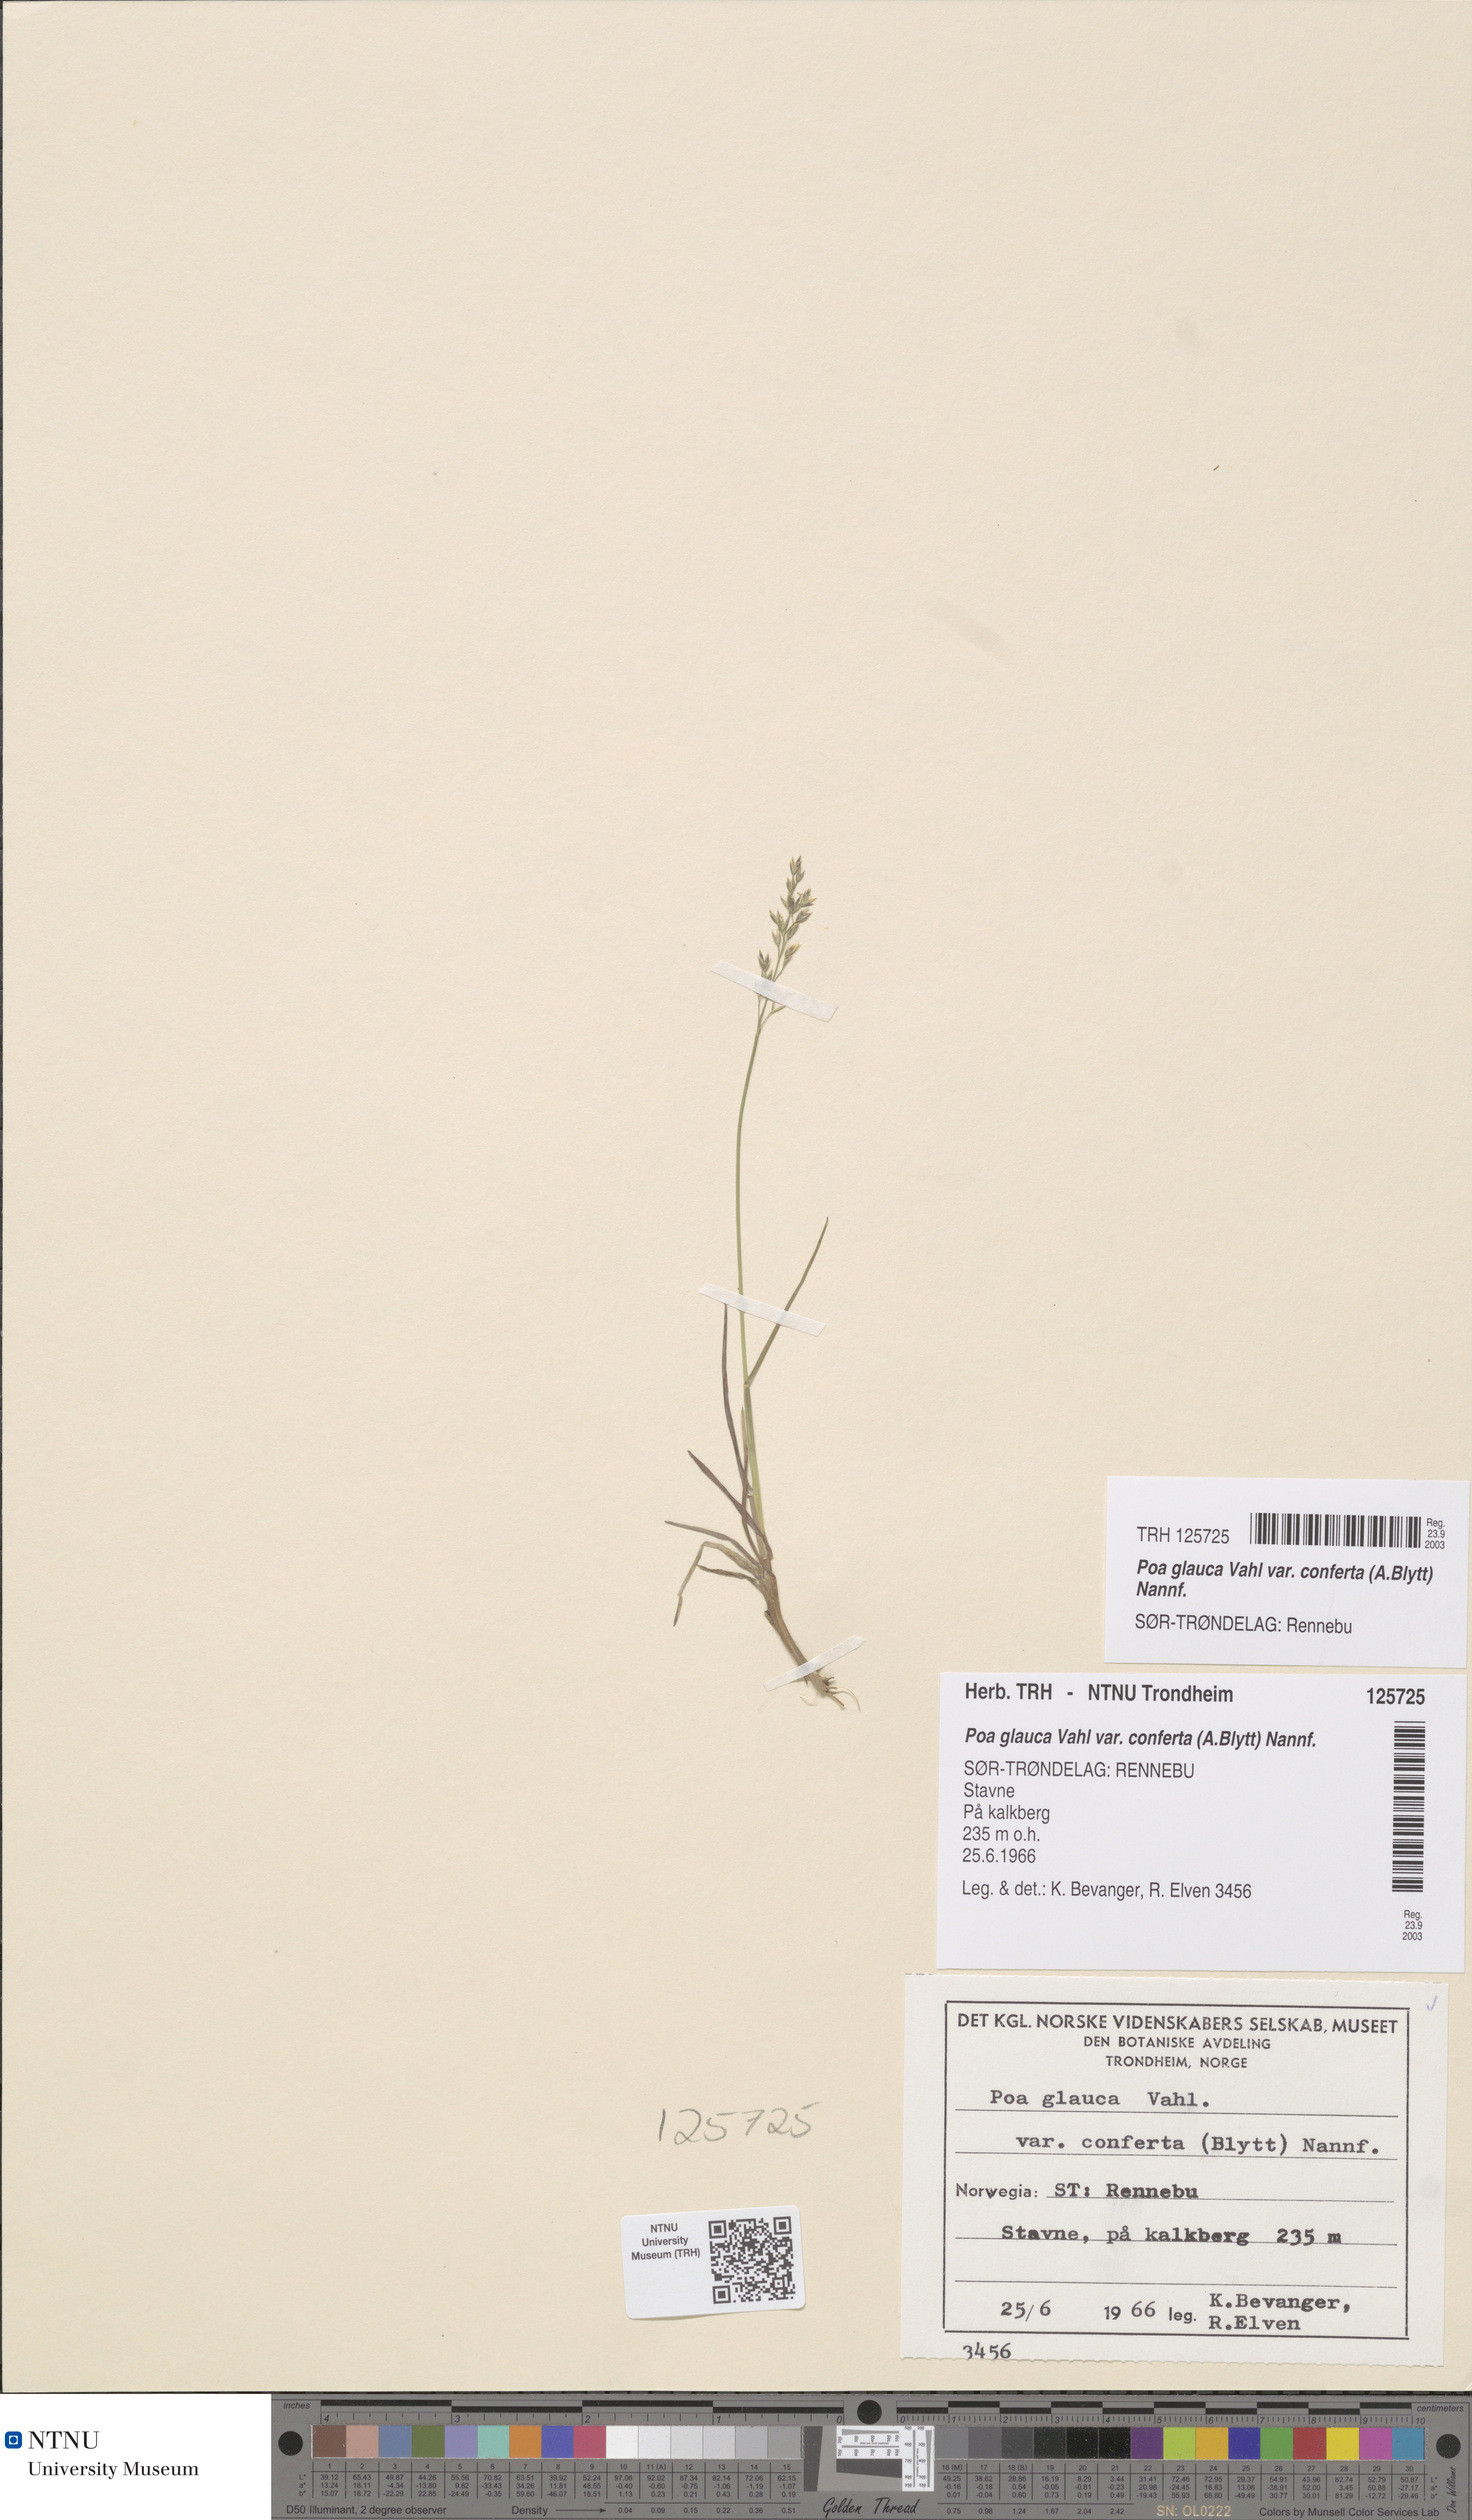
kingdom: Plantae
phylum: Tracheophyta
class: Liliopsida
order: Poales
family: Poaceae
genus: Poa
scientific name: Poa glauca
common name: Glaucous bluegrass
